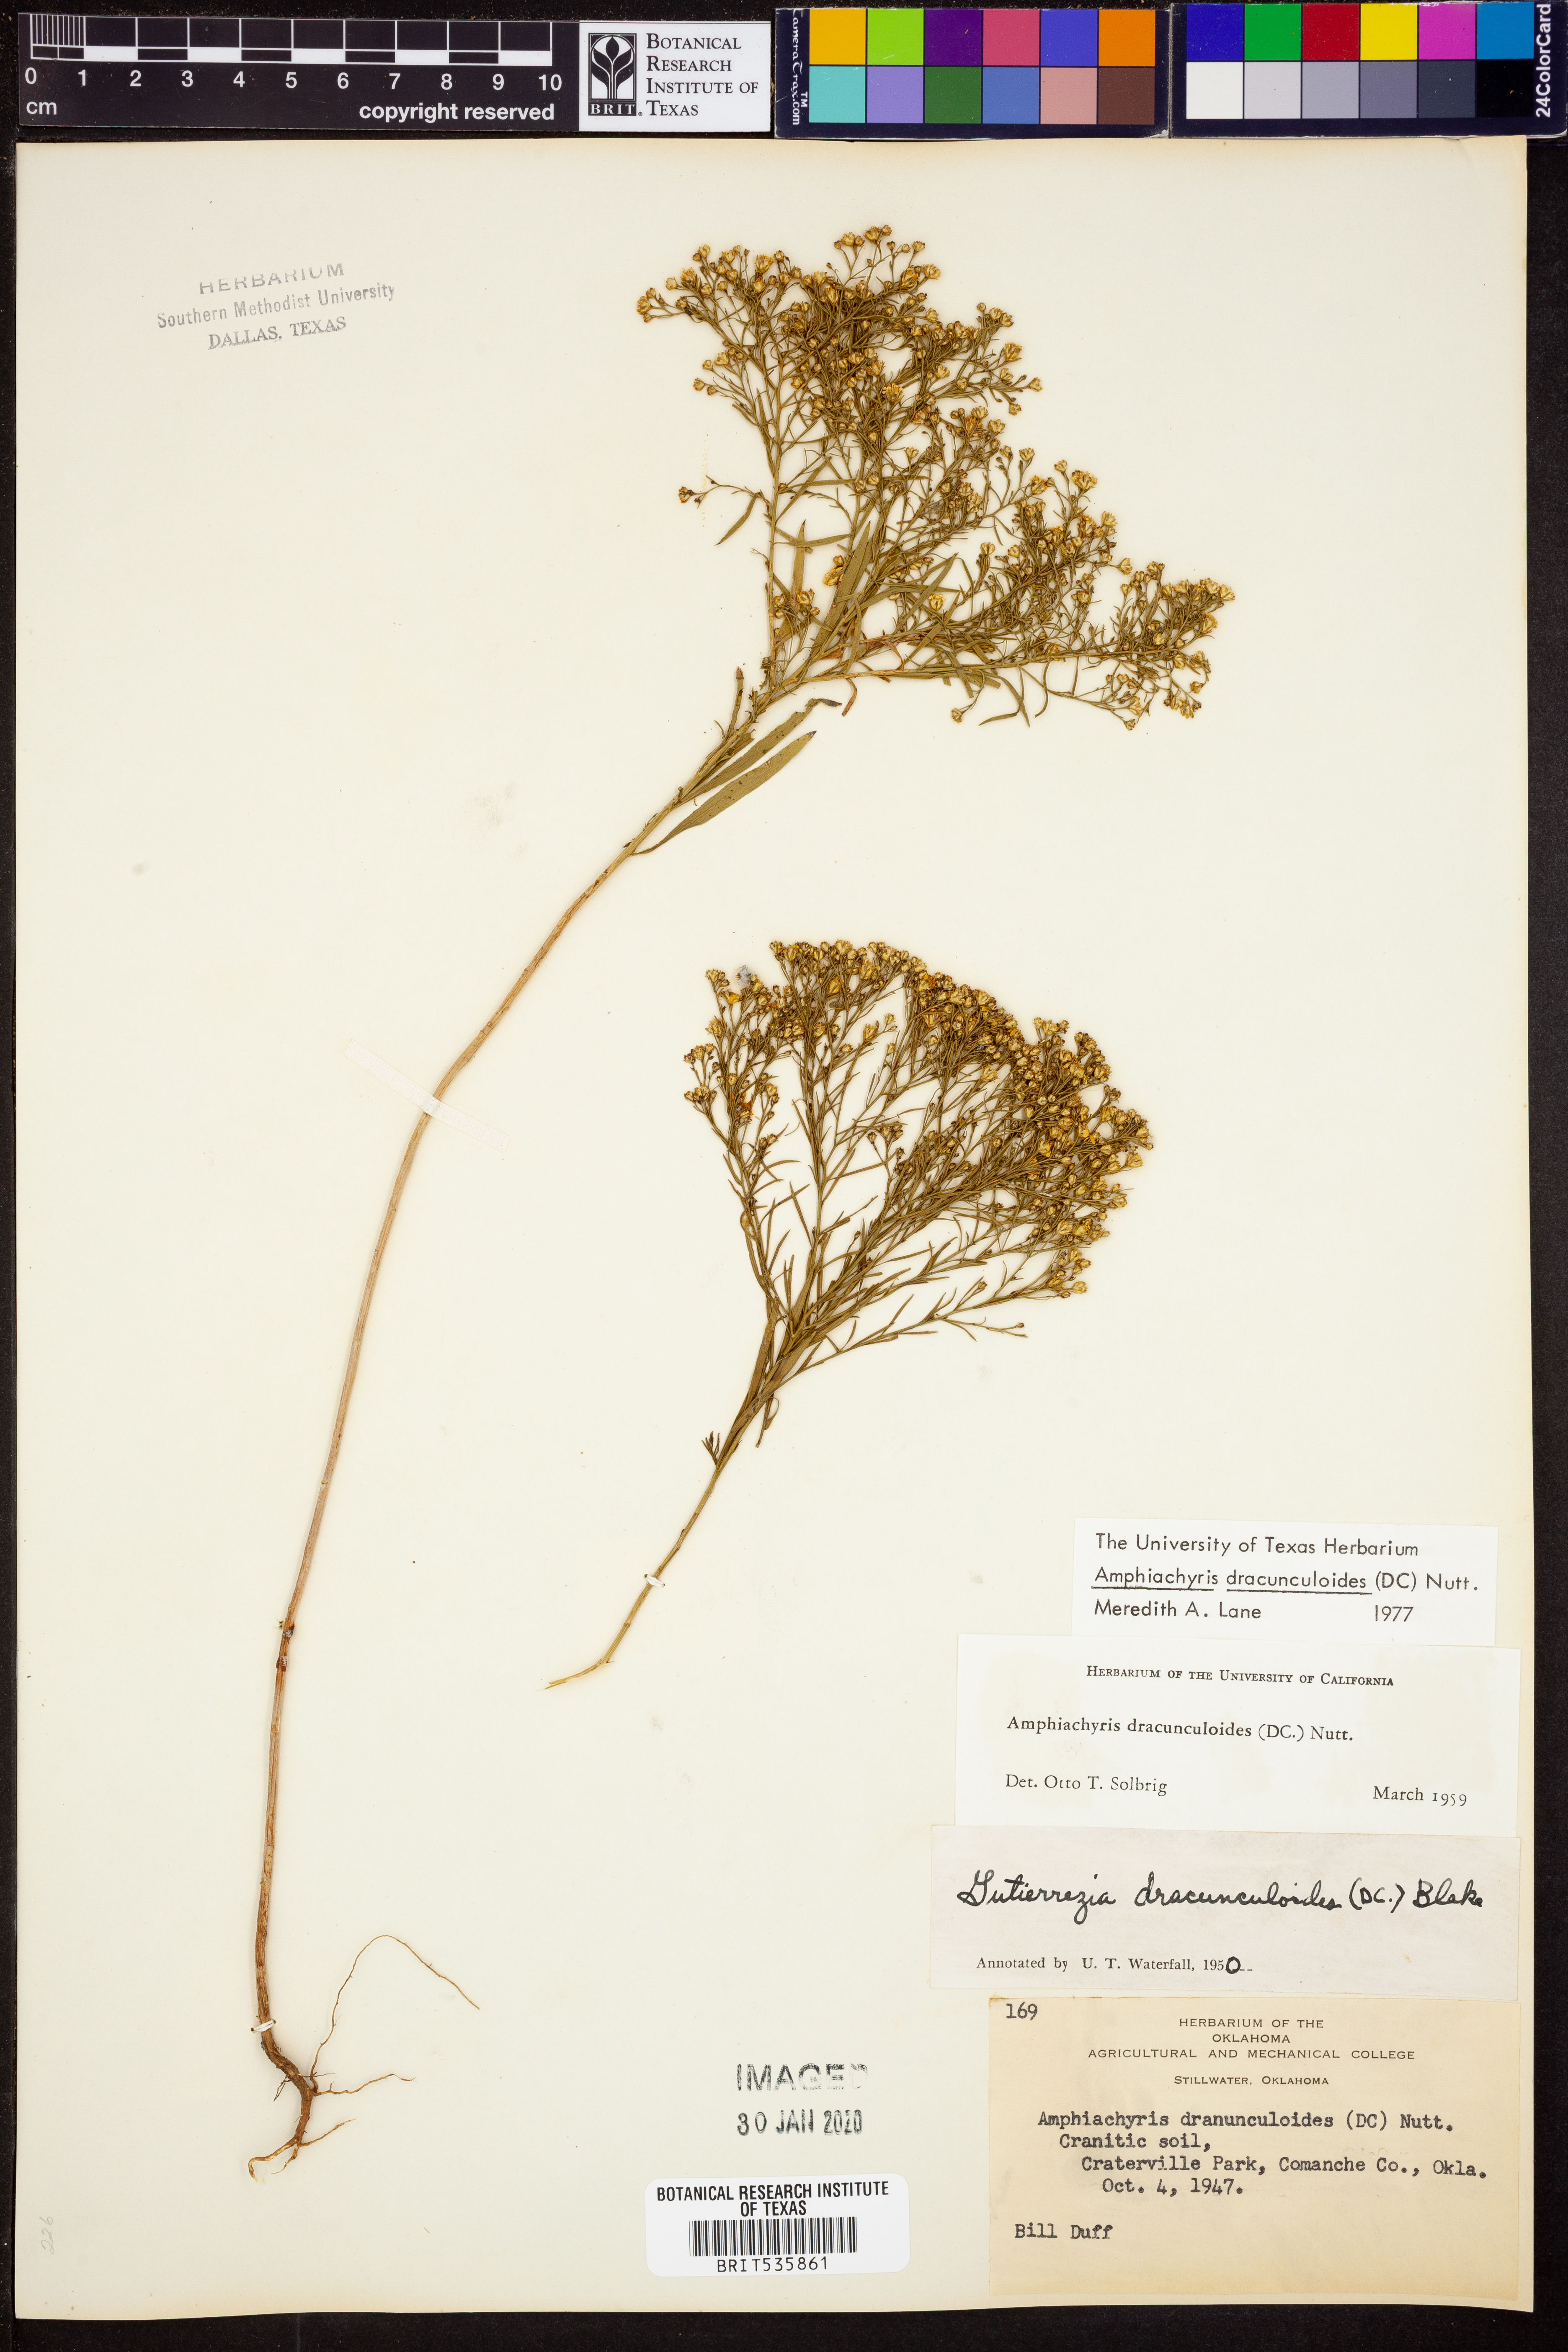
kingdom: Plantae
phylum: Tracheophyta
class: Magnoliopsida
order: Asterales
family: Asteraceae
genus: Amphiachyris
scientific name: Amphiachyris dracunculoides
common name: Broomweed
